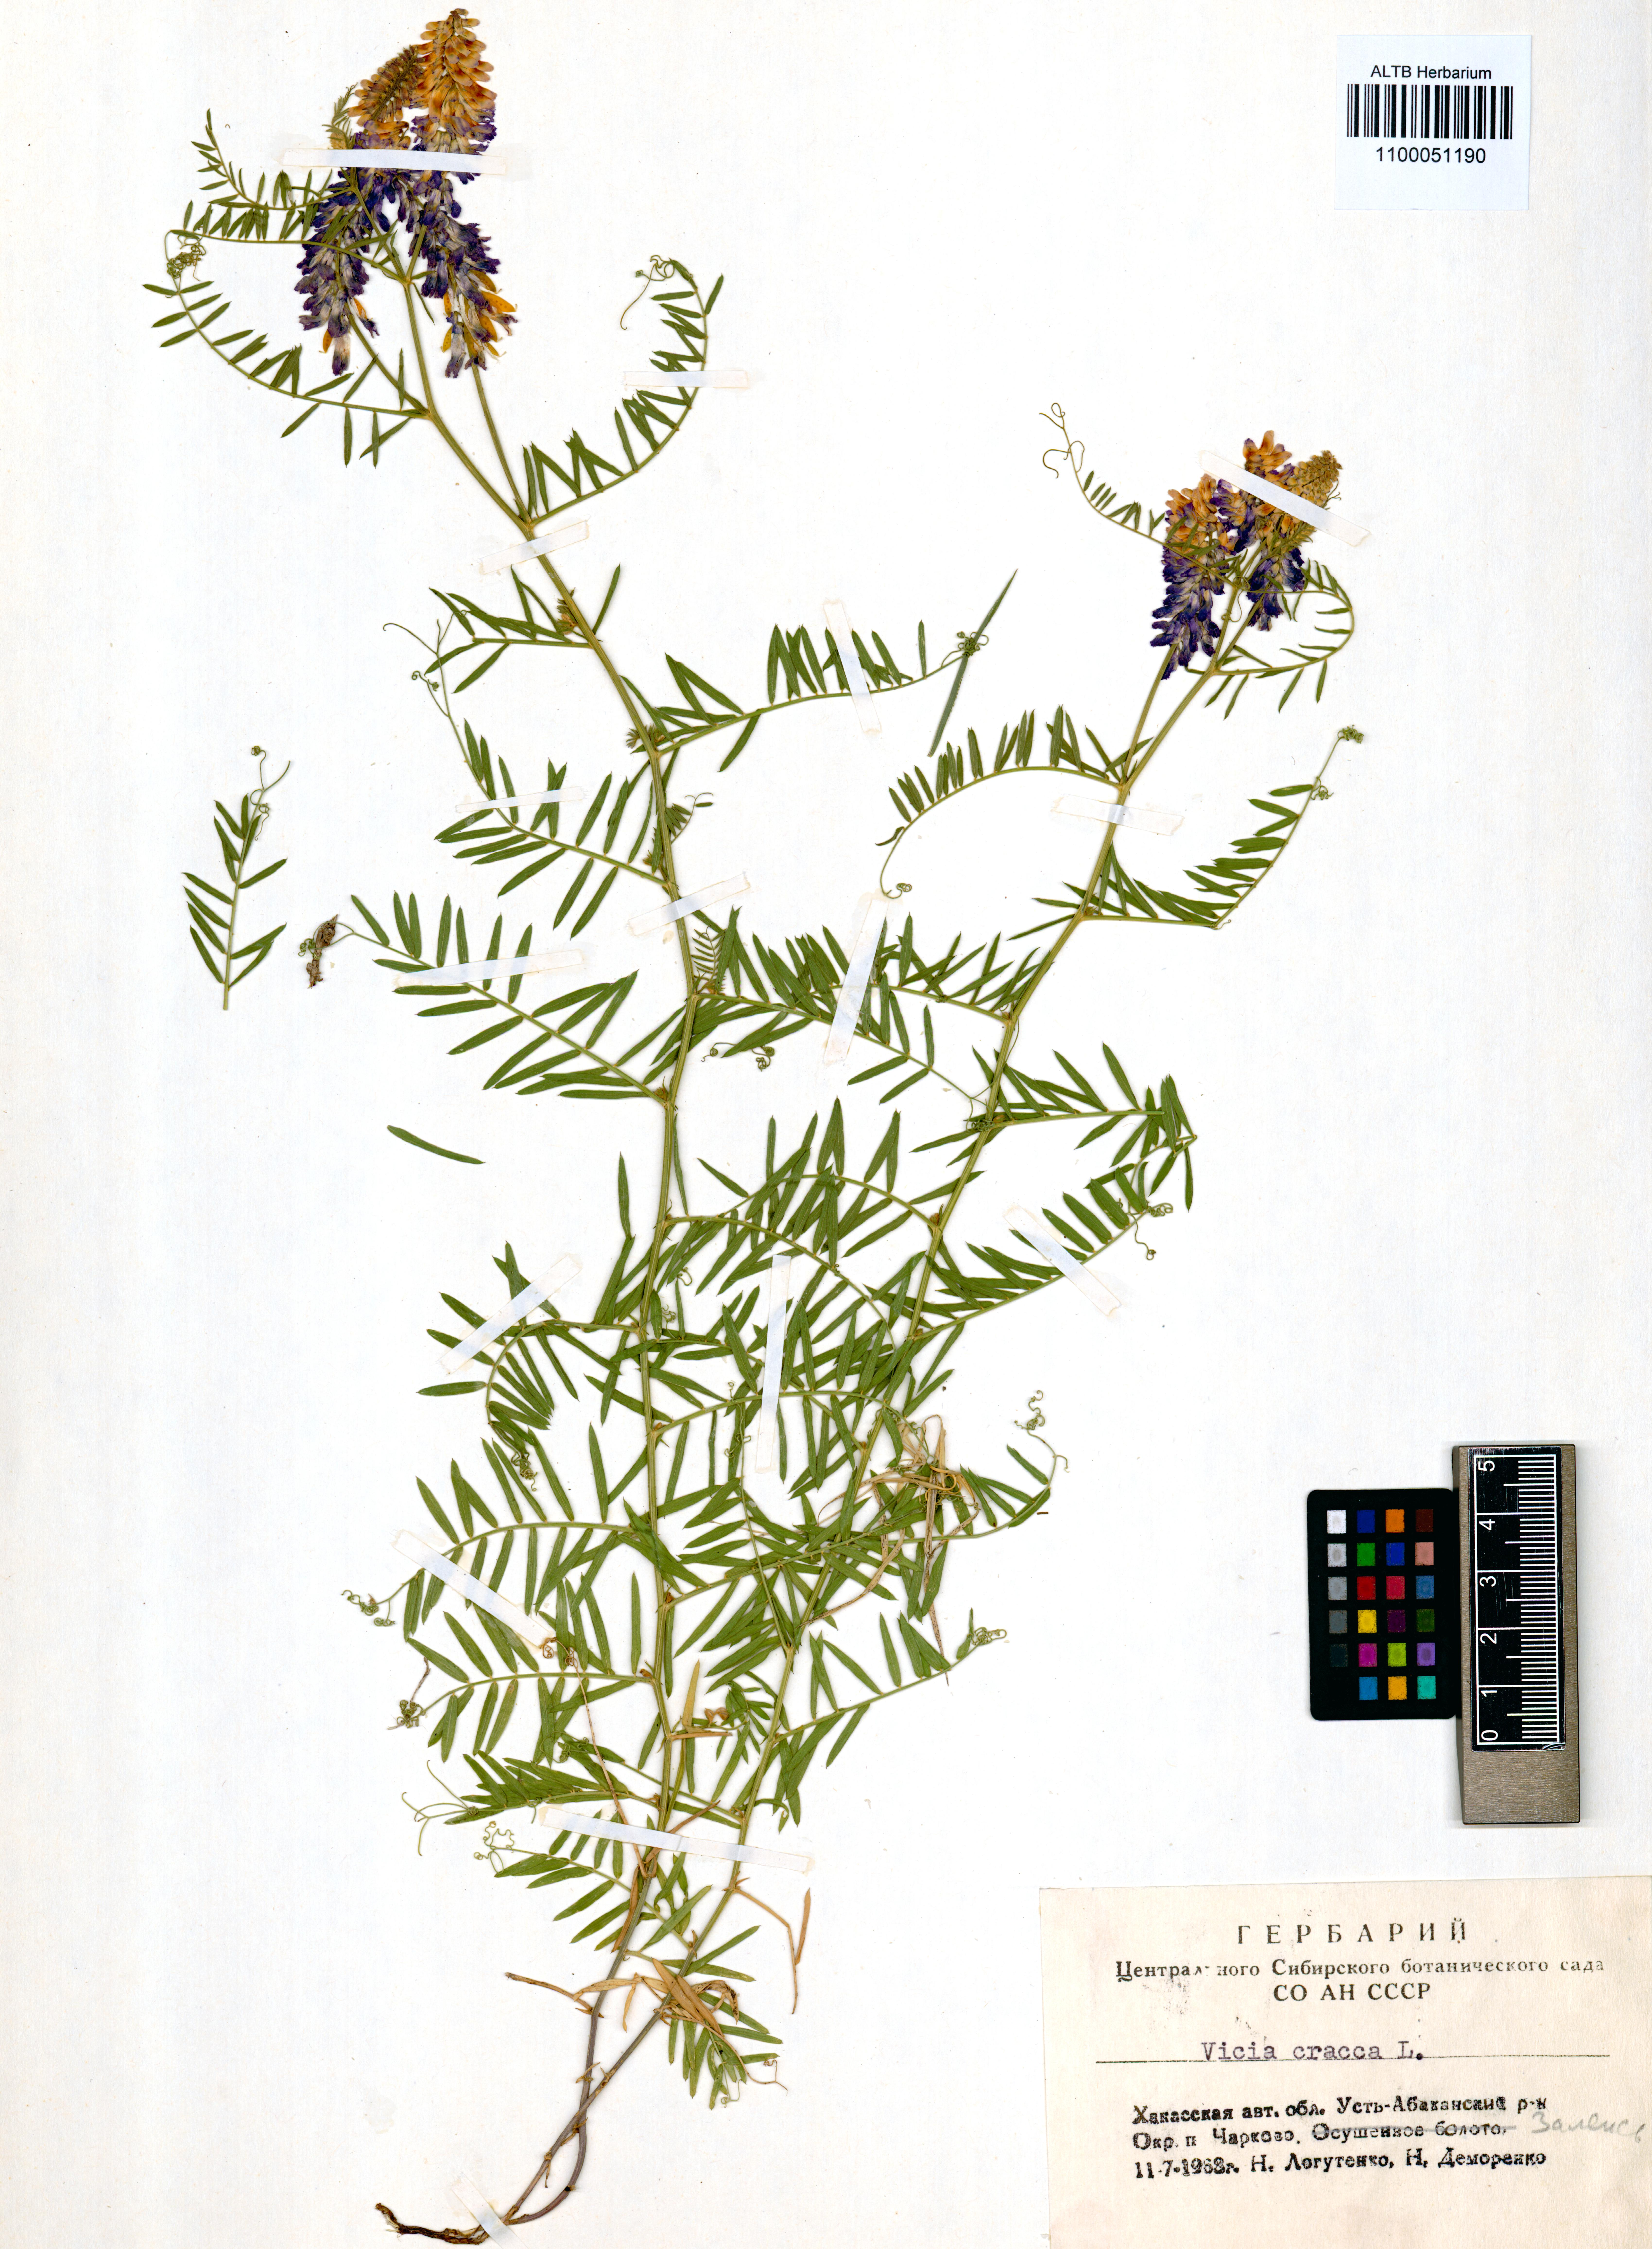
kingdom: Plantae
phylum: Tracheophyta
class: Magnoliopsida
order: Fabales
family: Fabaceae
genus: Vicia
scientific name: Vicia cracca
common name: Bird vetch
